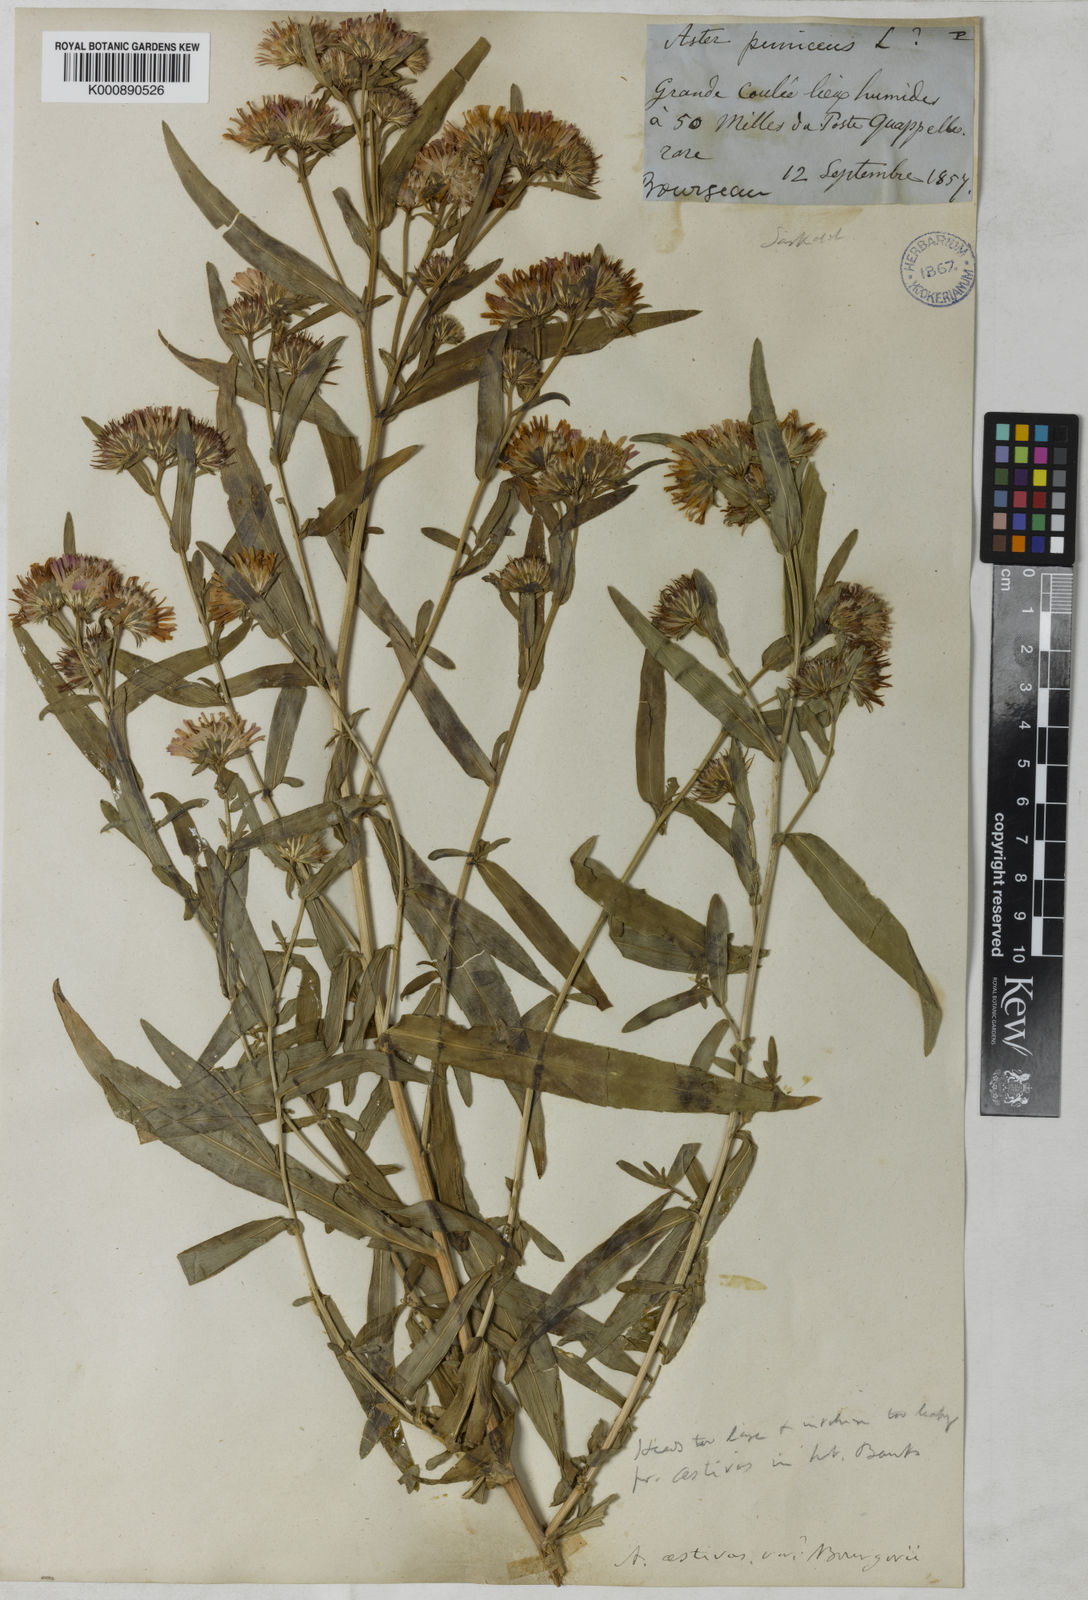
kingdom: Plantae
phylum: Tracheophyta
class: Magnoliopsida
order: Asterales
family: Asteraceae
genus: Symphyotrichum
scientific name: Symphyotrichum novi-belgii
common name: Michaelmas daisy
